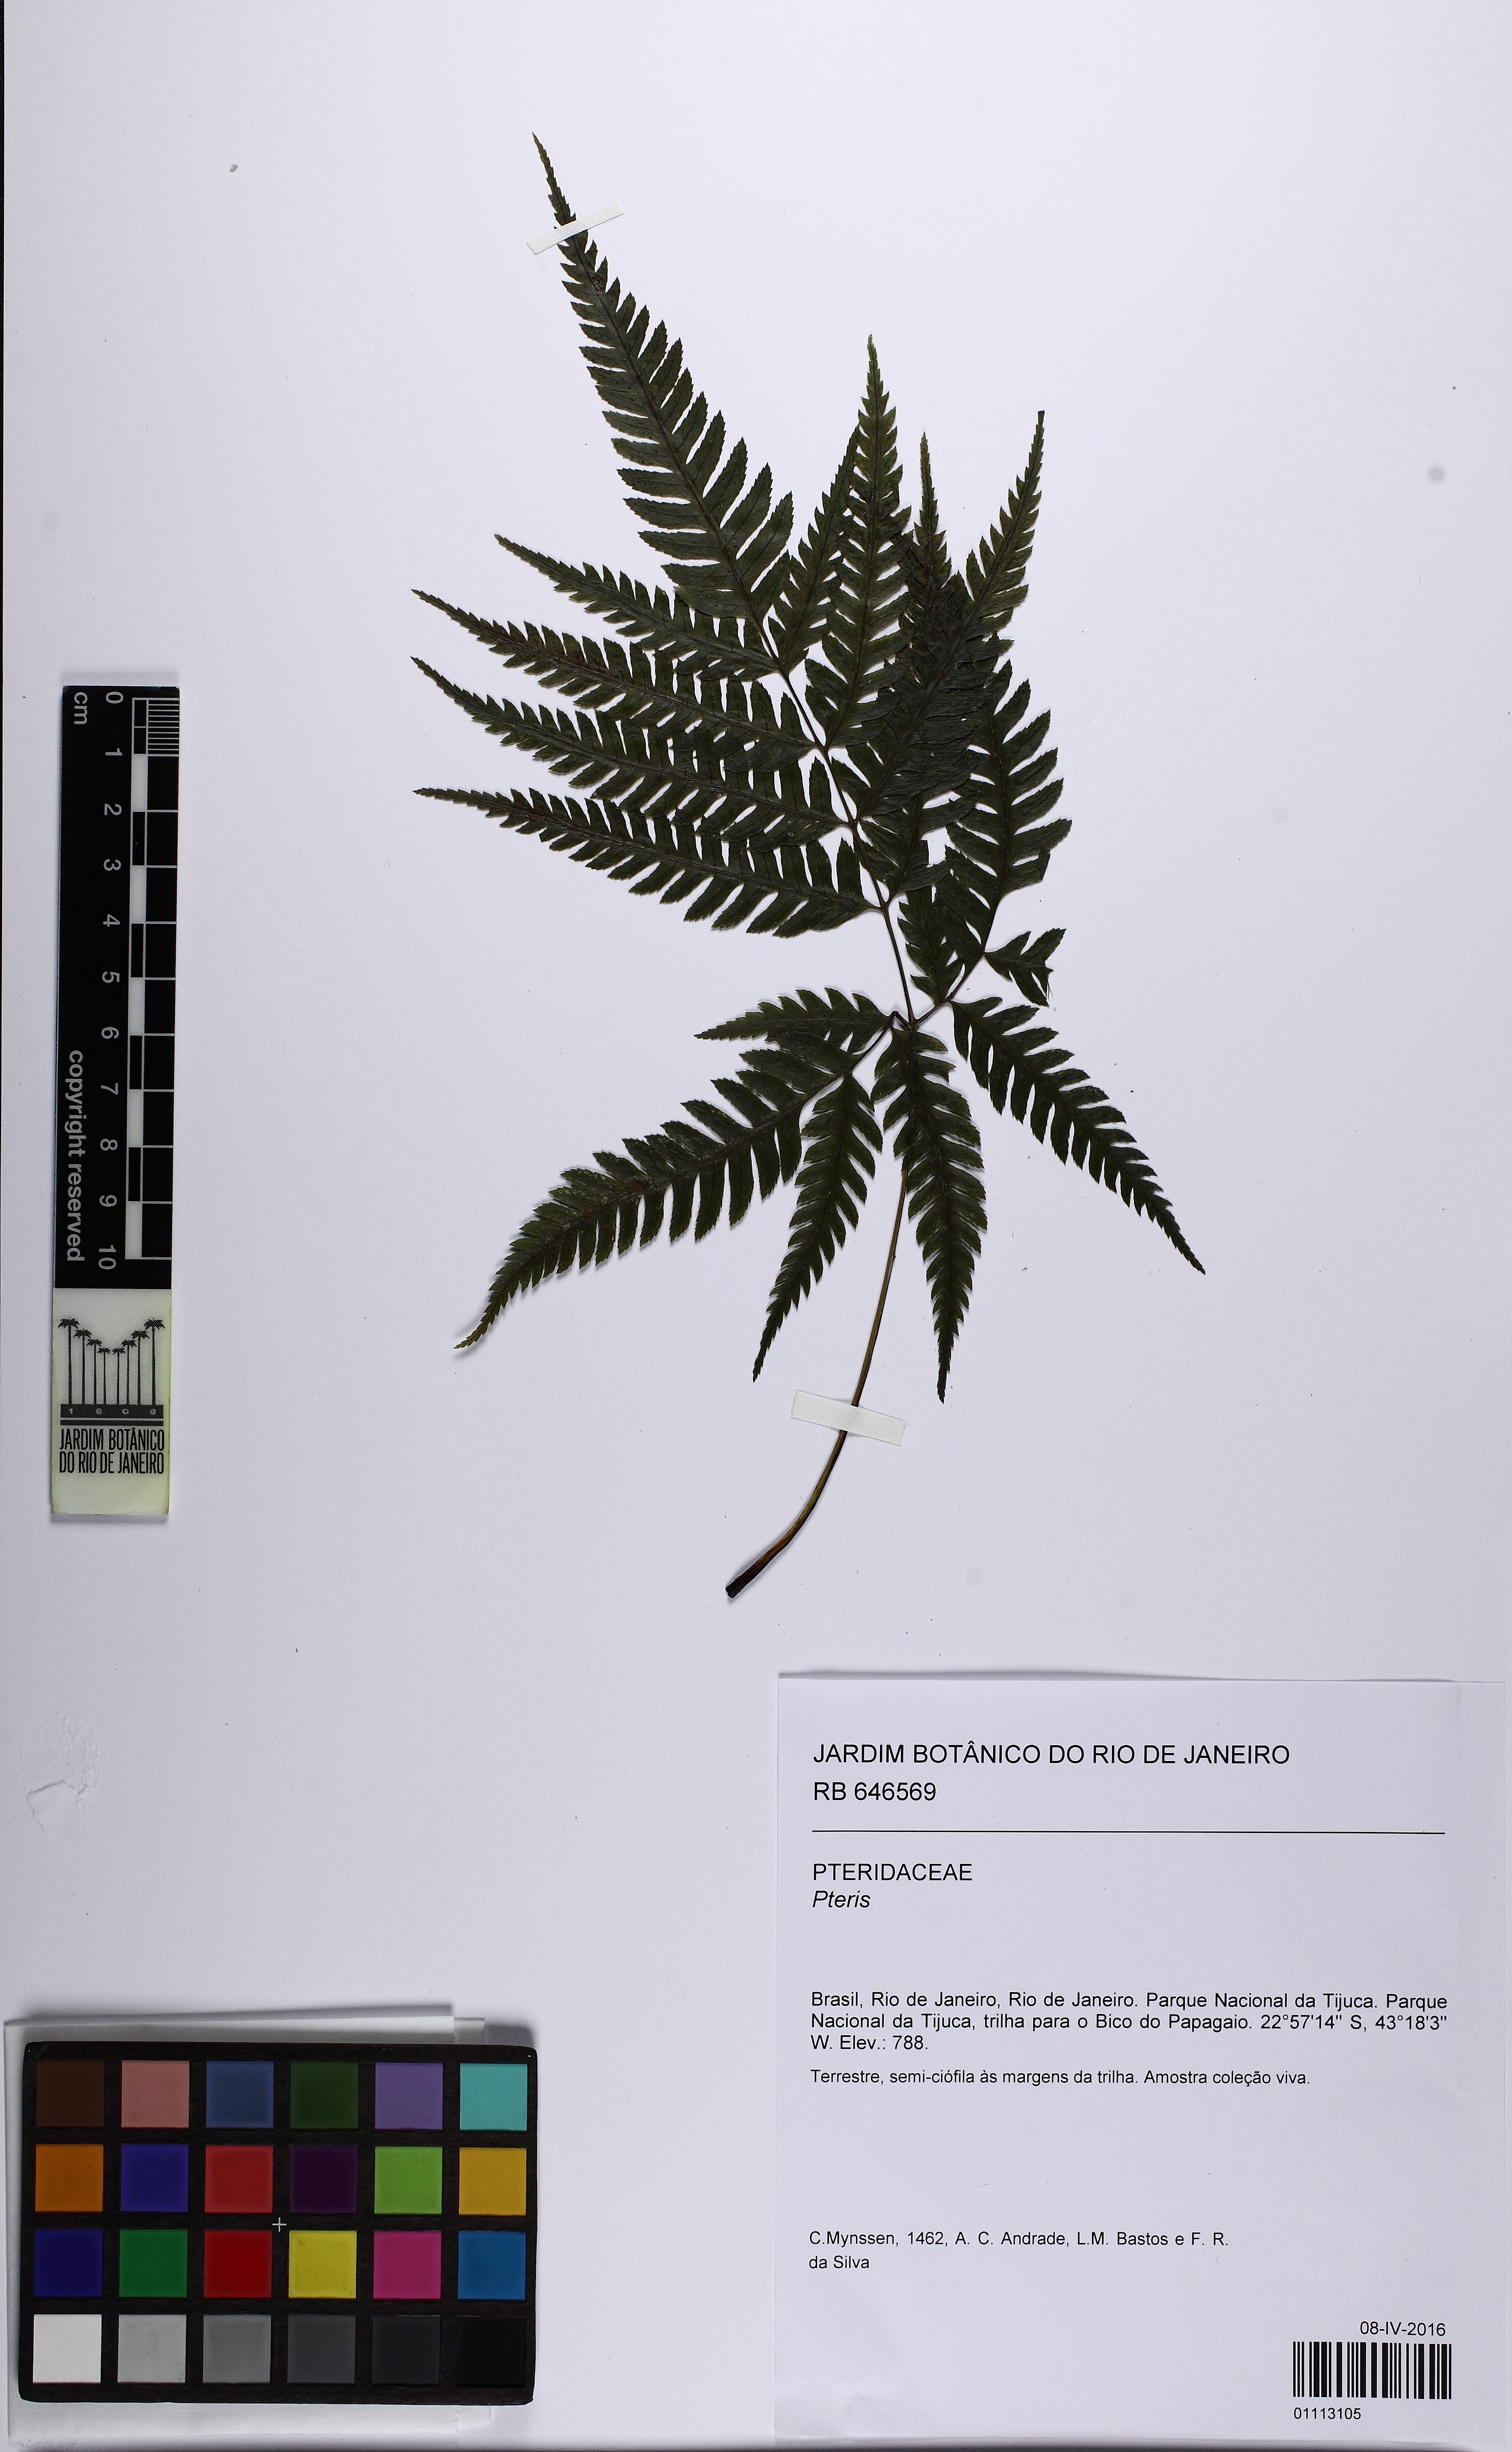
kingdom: Plantae
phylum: Tracheophyta
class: Polypodiopsida
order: Polypodiales
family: Pteridaceae
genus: Pteris
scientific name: Pteris
